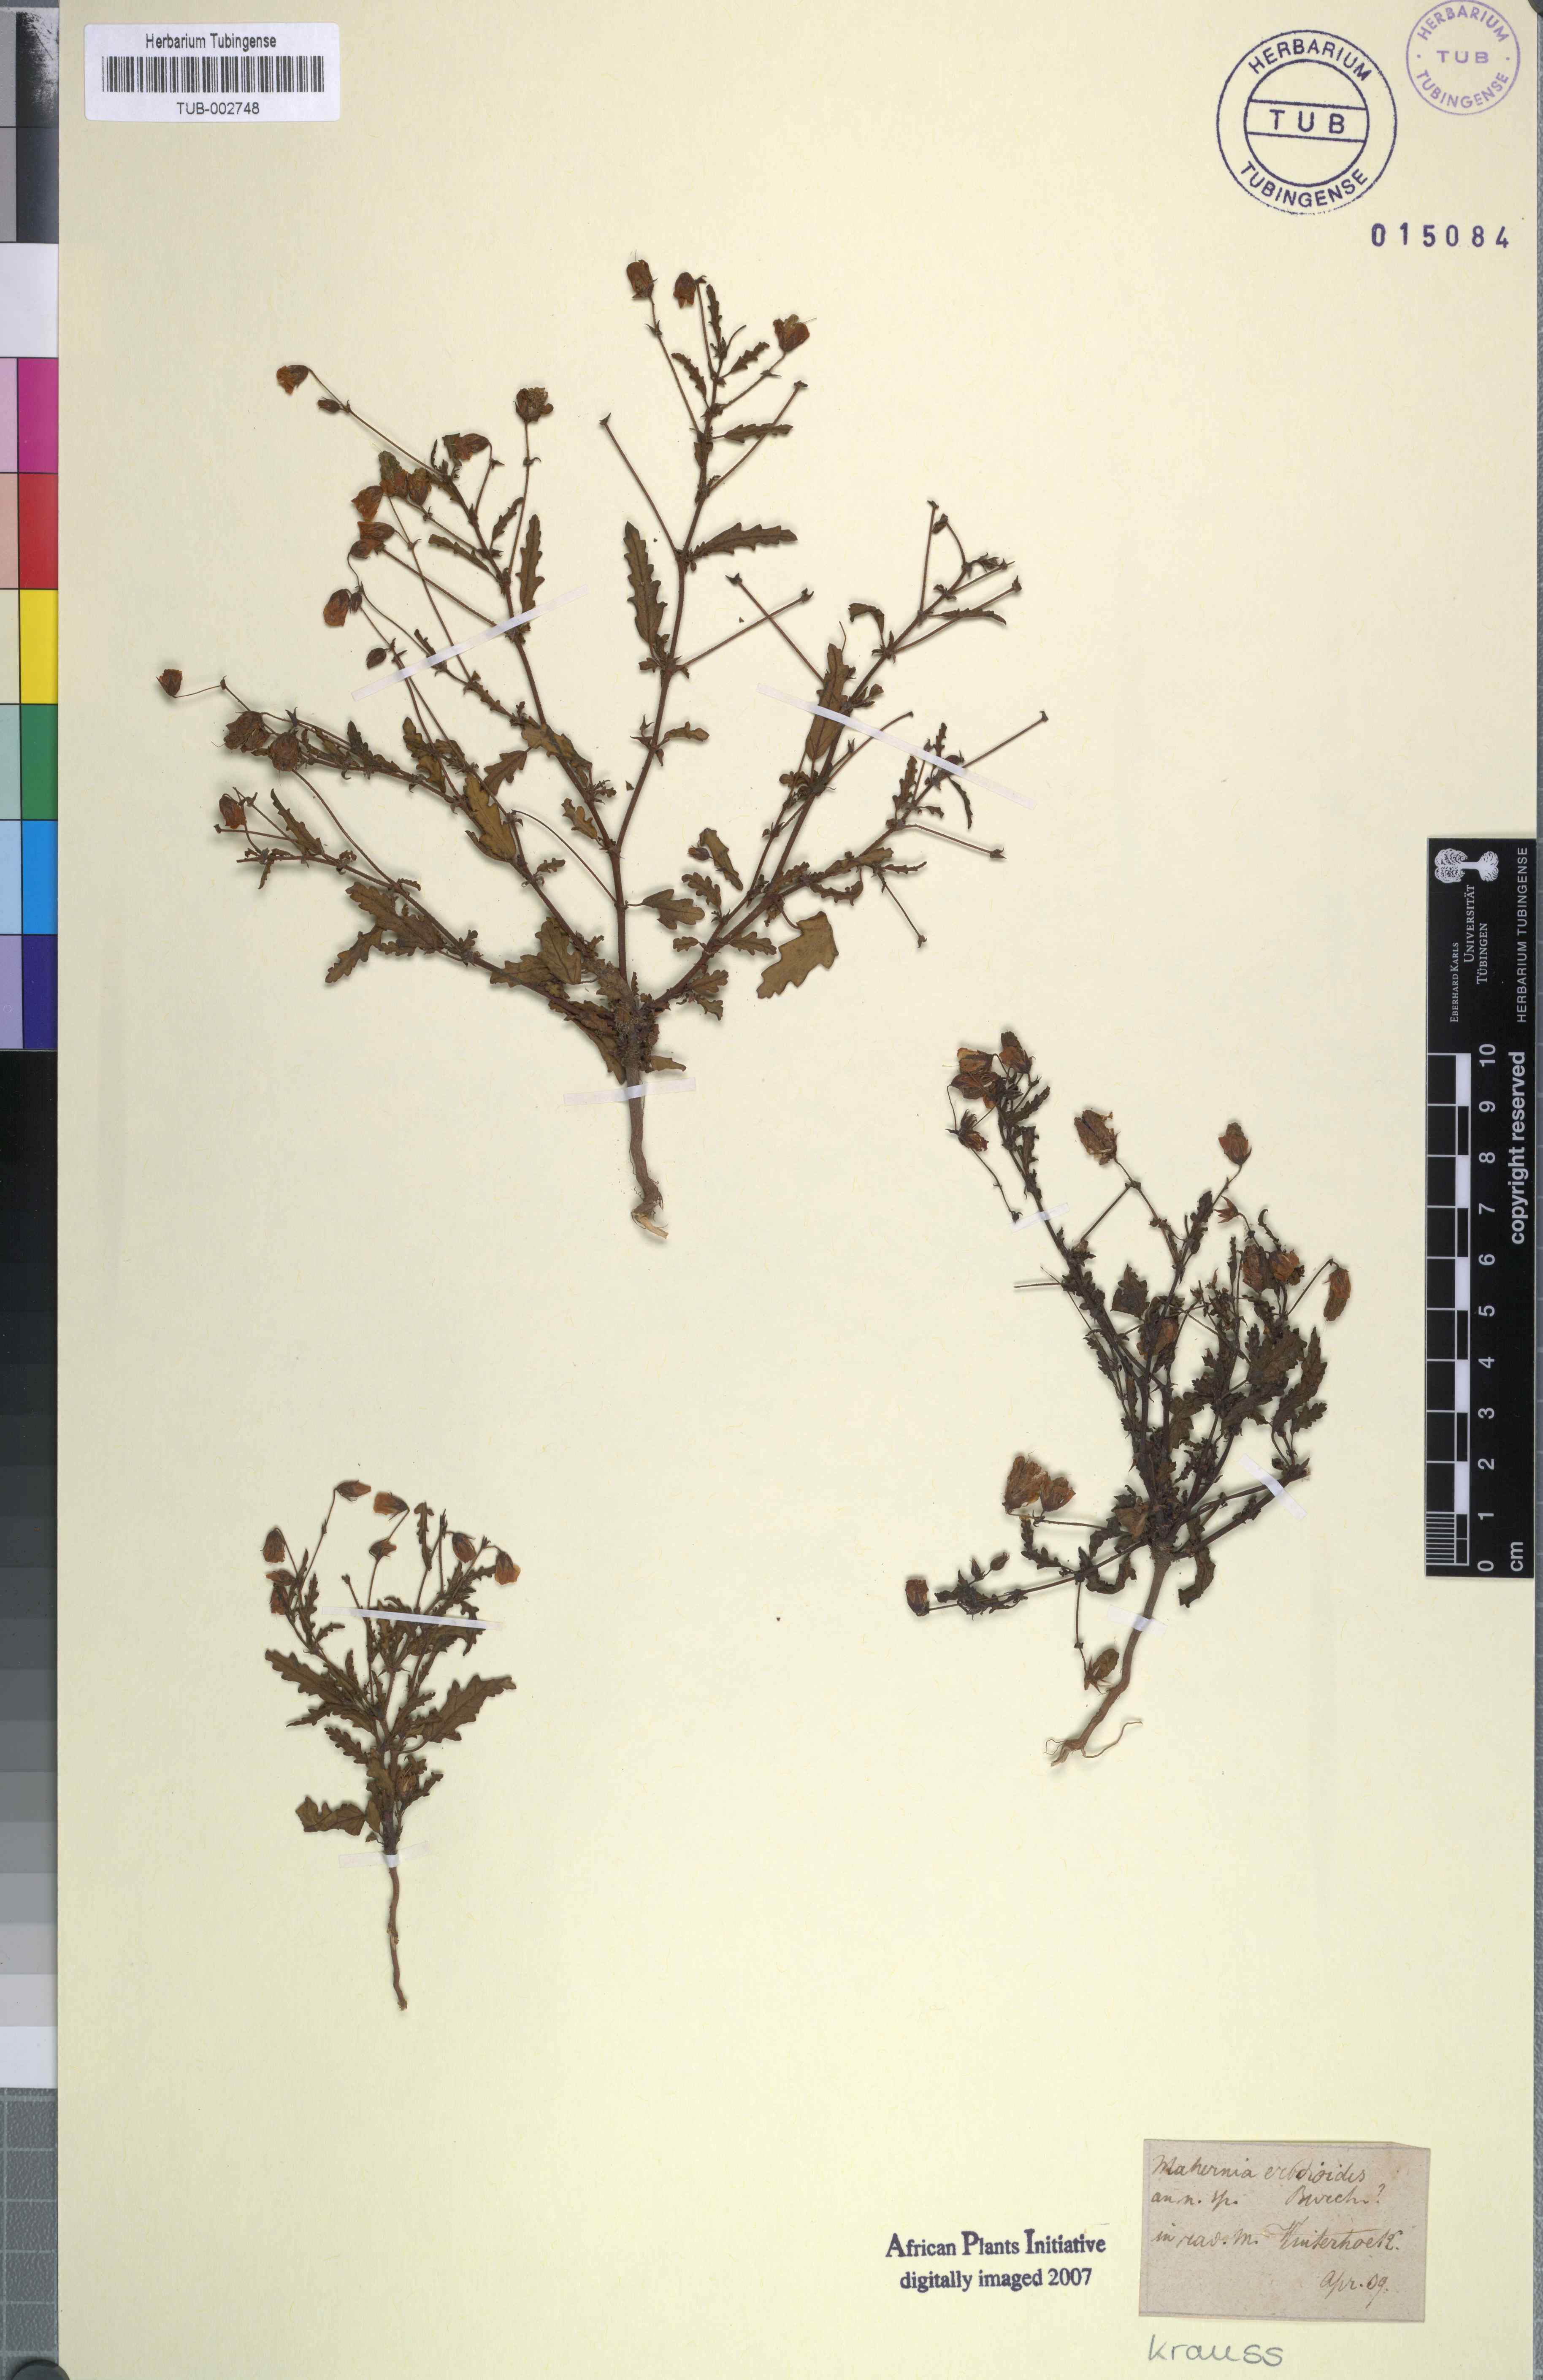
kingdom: Plantae
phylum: Tracheophyta
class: Magnoliopsida
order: Malvales
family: Malvaceae
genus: Hermannia
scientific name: Hermannia erodioides
